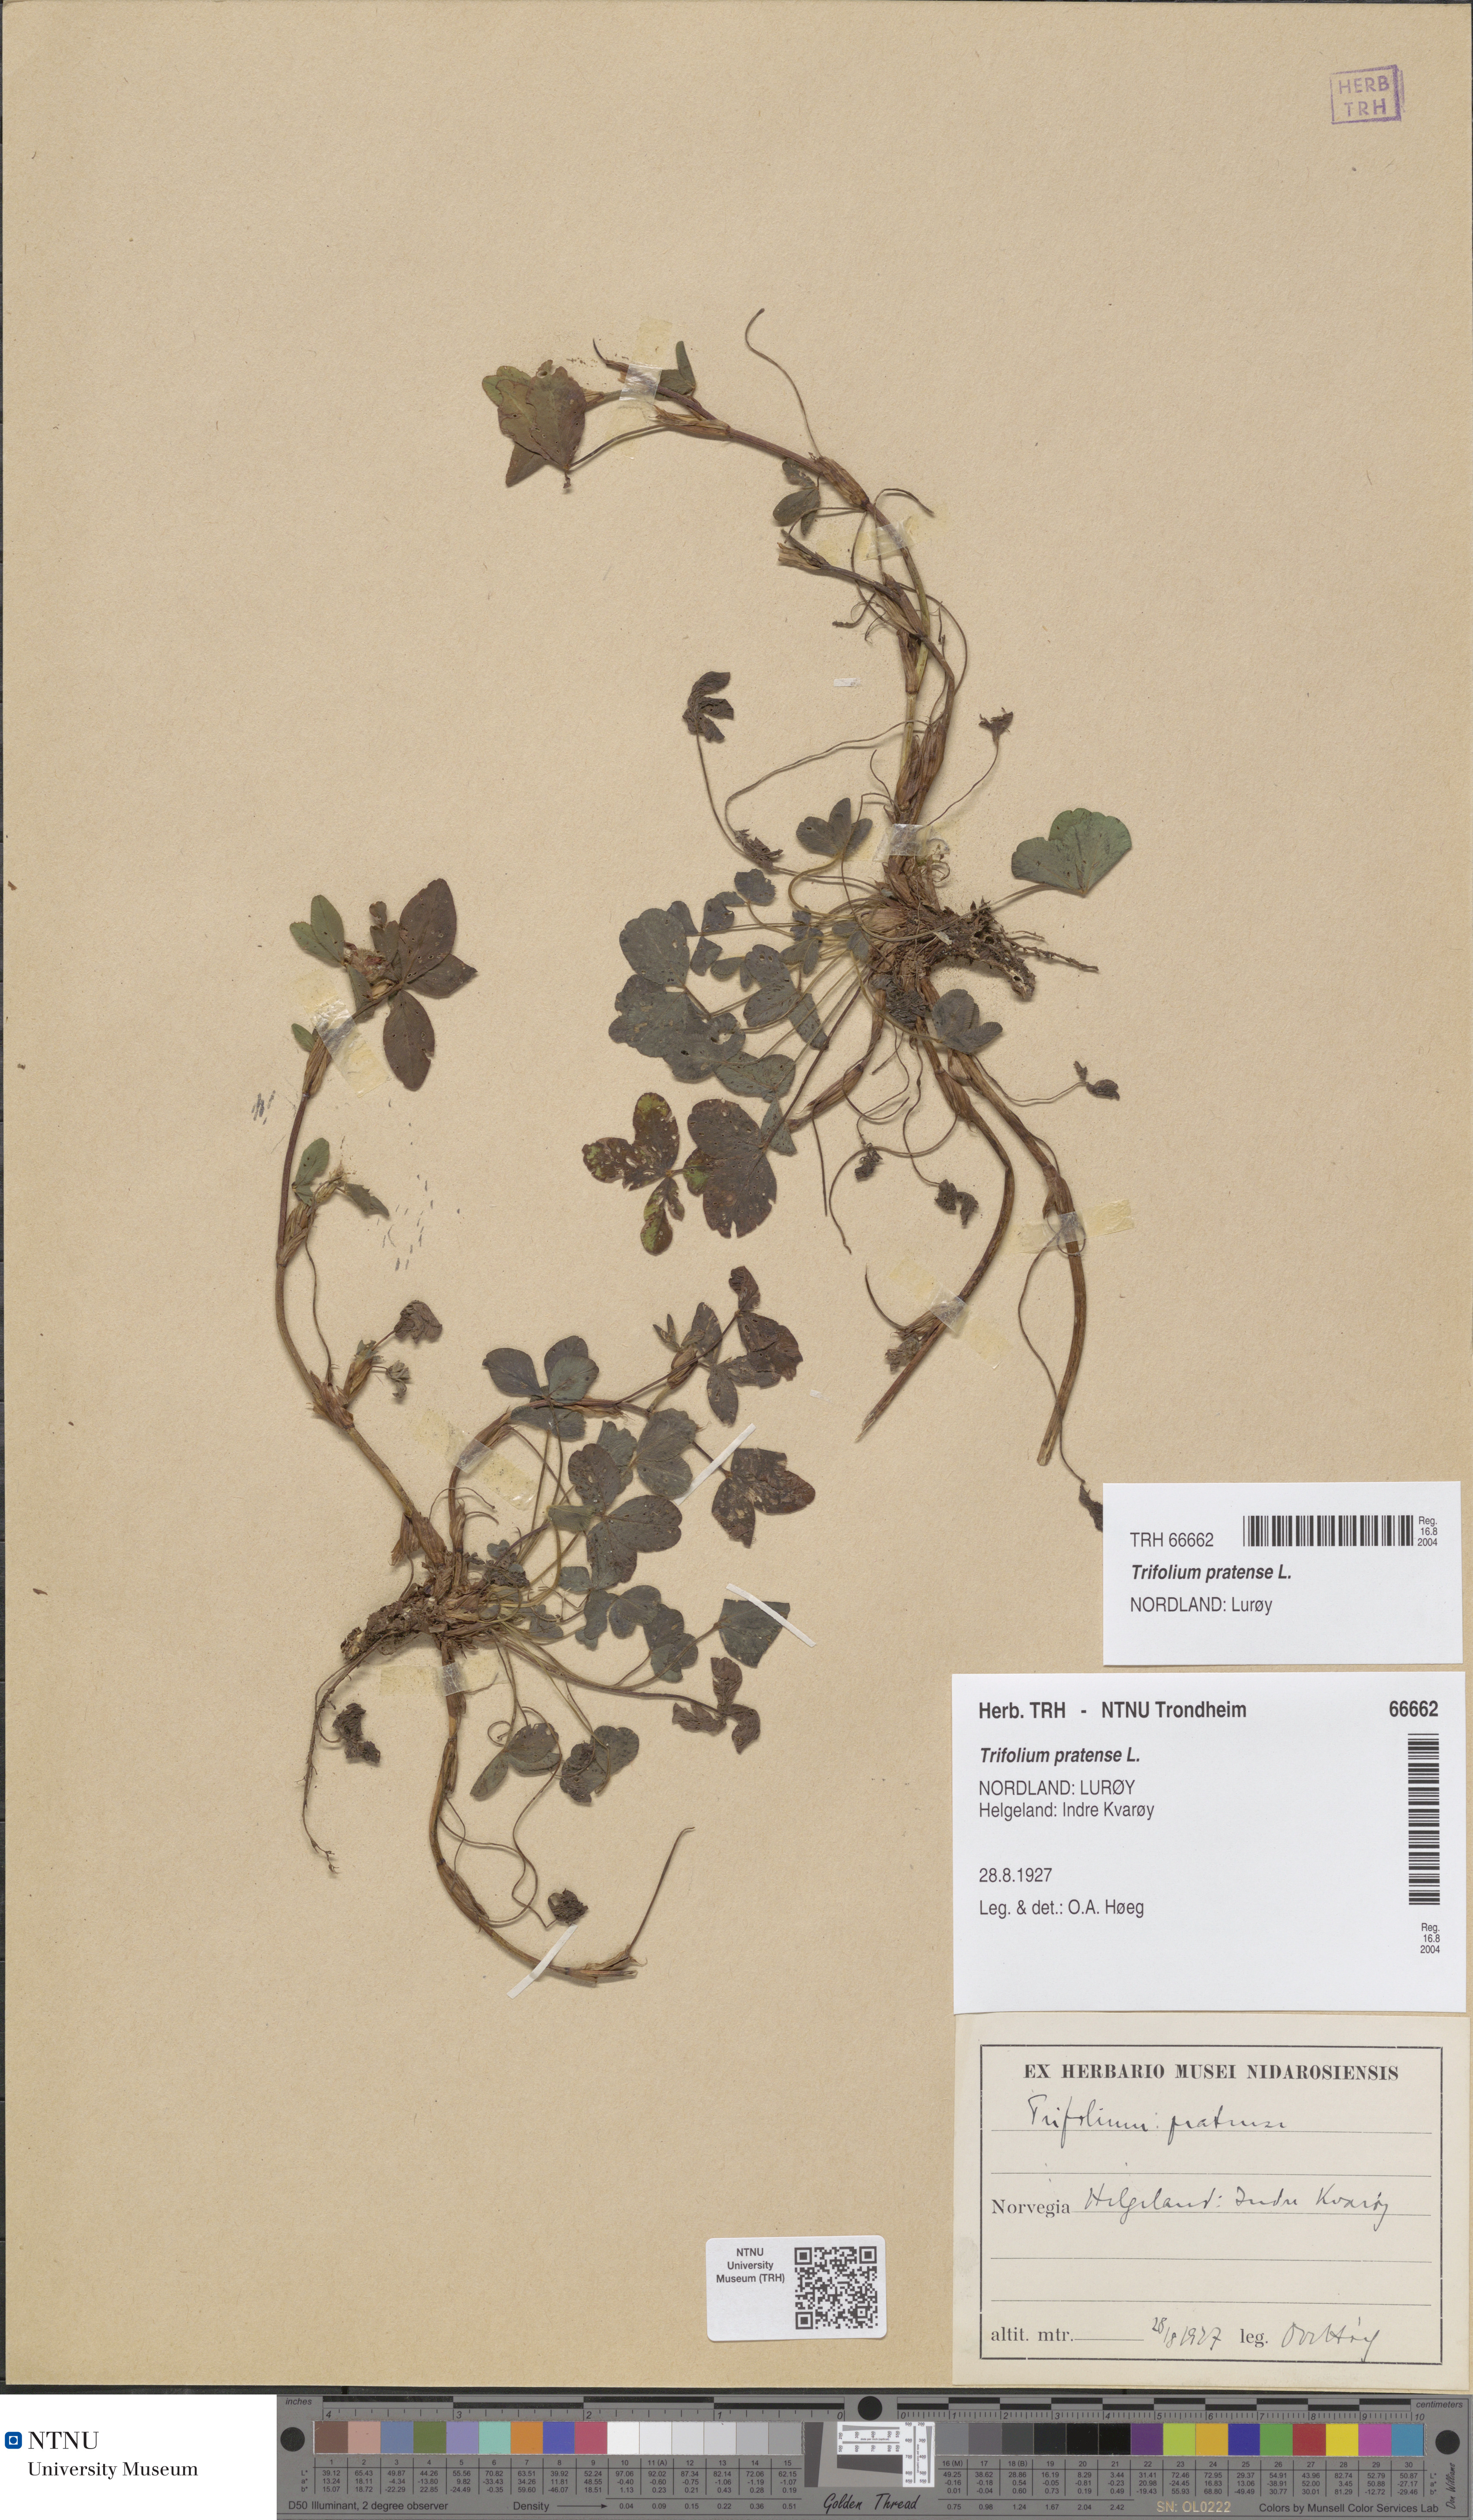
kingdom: Plantae
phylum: Tracheophyta
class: Magnoliopsida
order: Fabales
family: Fabaceae
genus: Trifolium
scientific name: Trifolium pratense
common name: Red clover
